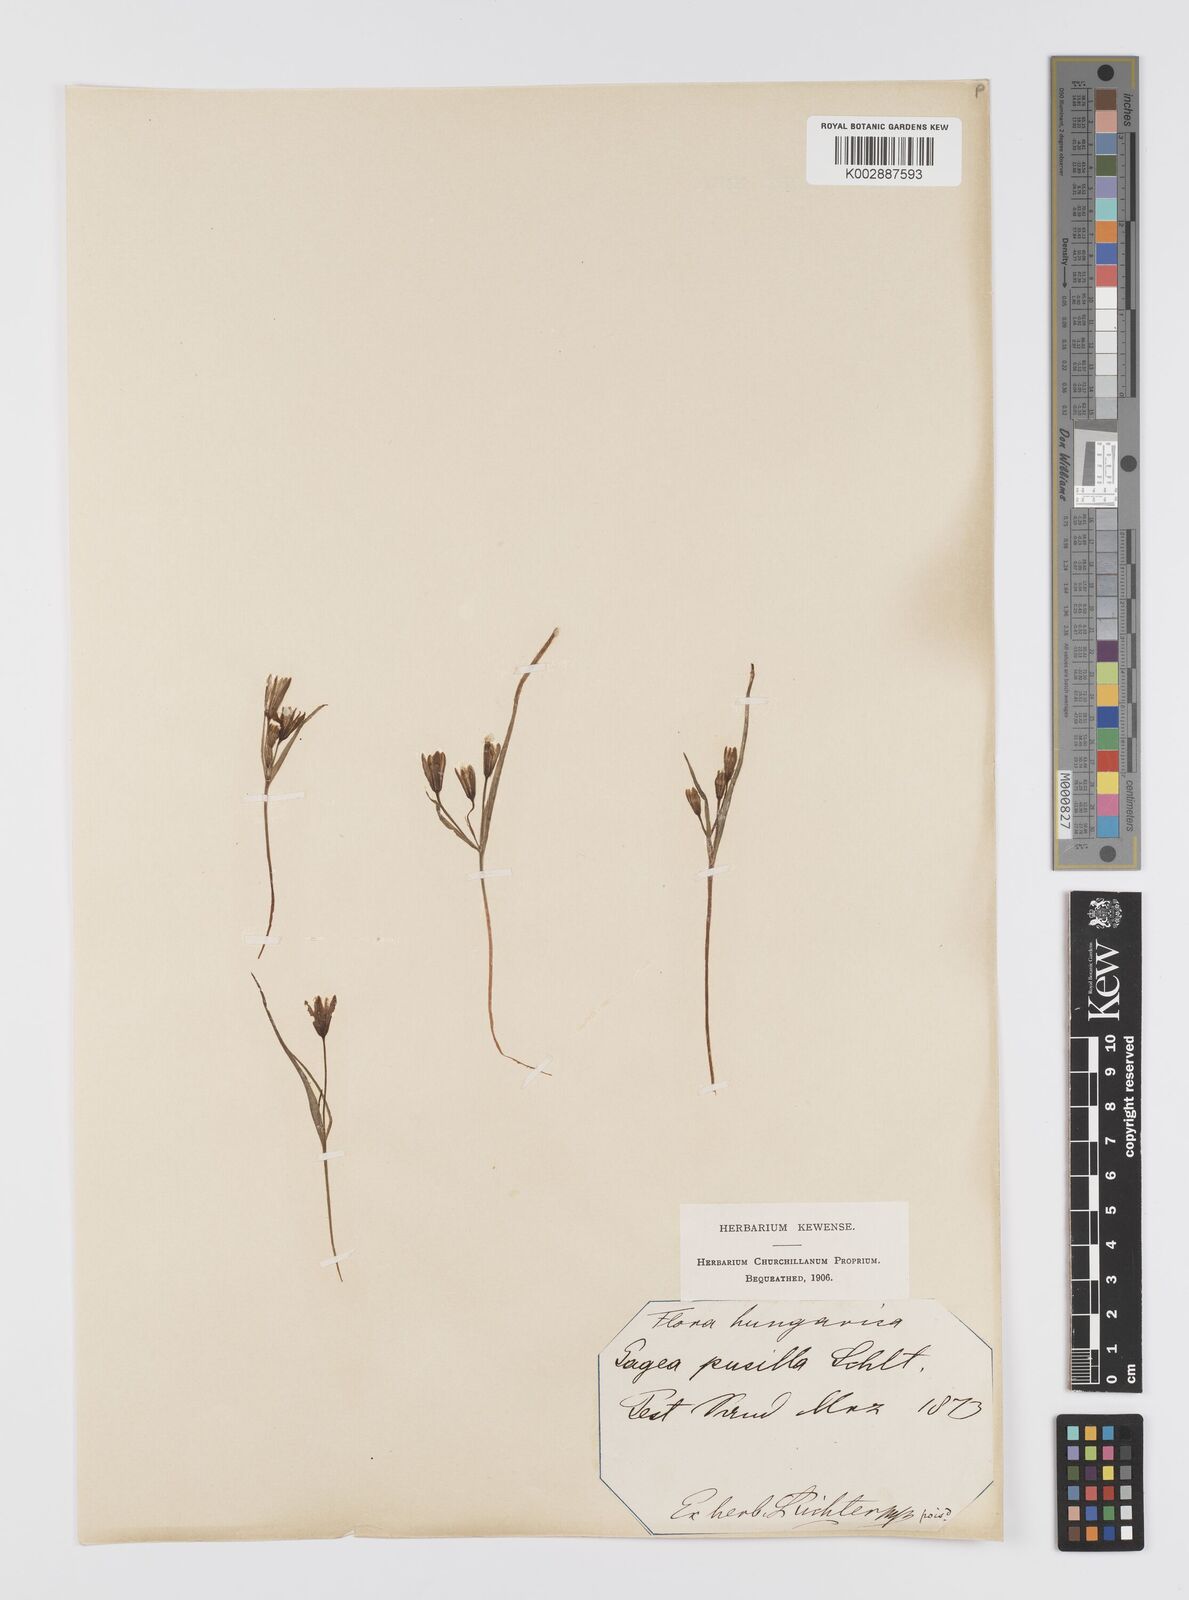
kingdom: Plantae
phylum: Tracheophyta
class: Liliopsida
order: Liliales
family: Liliaceae
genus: Gagea
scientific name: Gagea pusilla
